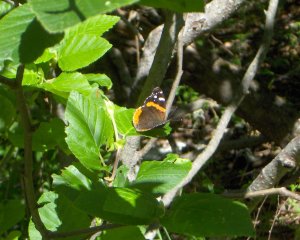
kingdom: Animalia
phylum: Arthropoda
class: Insecta
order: Lepidoptera
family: Nymphalidae
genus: Vanessa
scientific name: Vanessa atalanta
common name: Red Admiral
